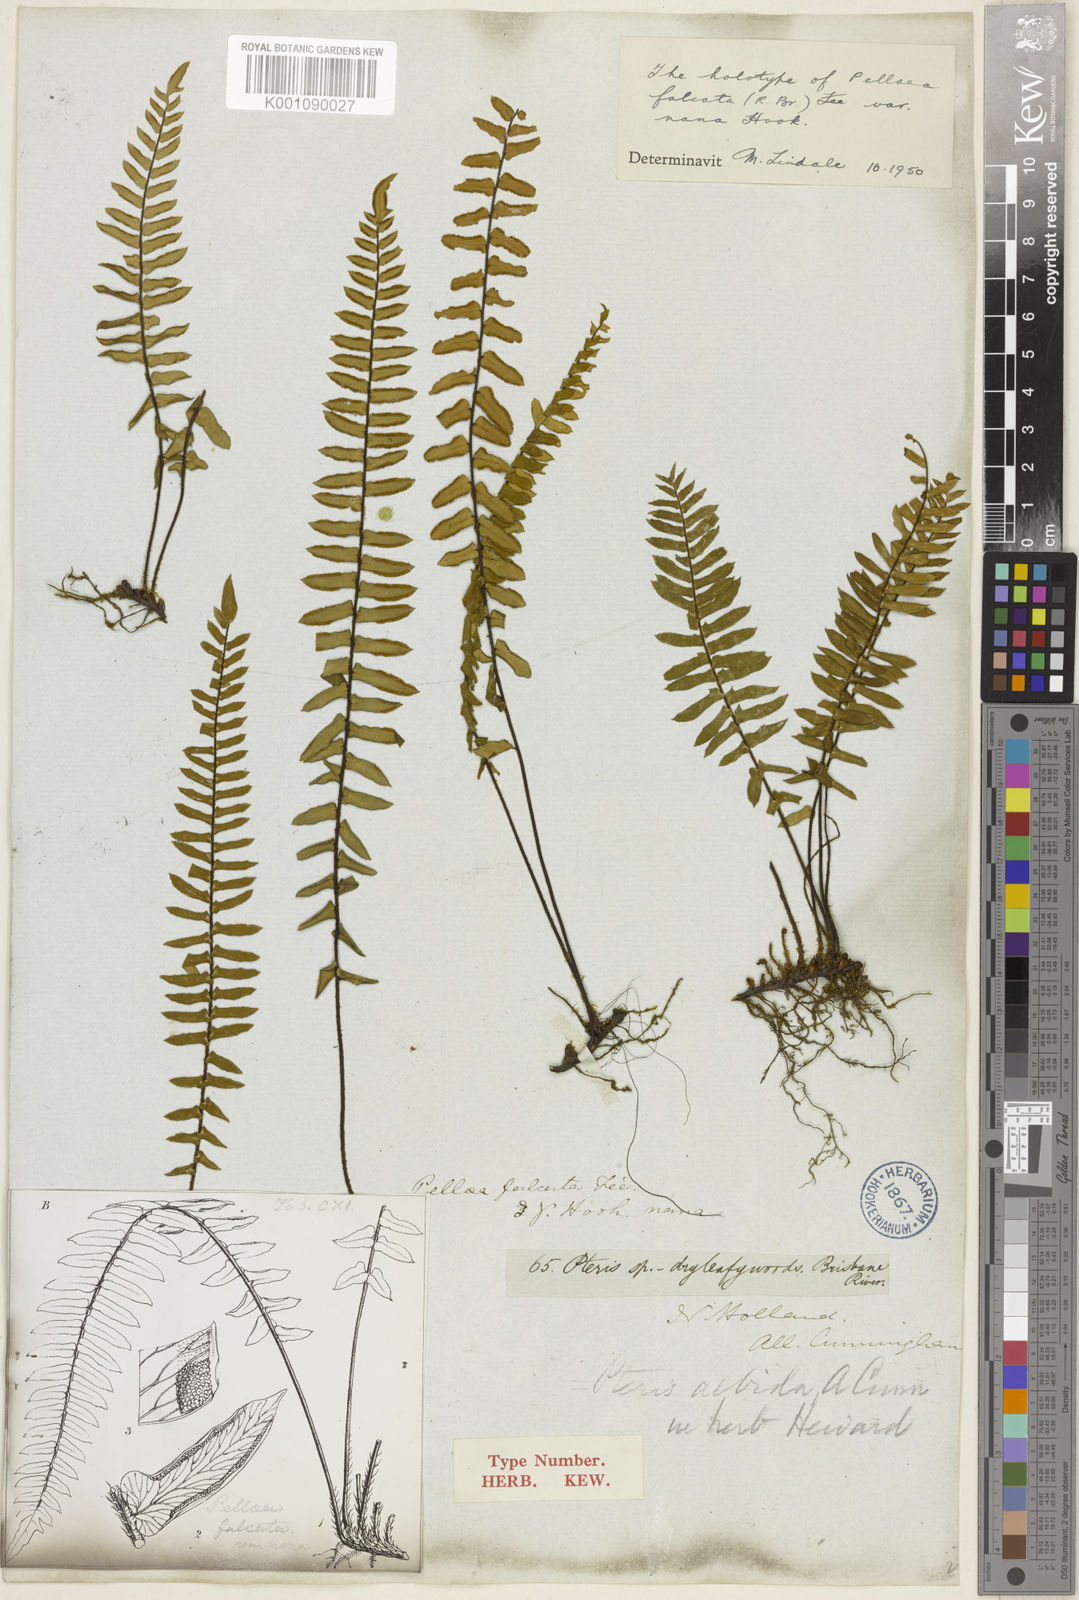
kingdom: Plantae
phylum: Tracheophyta
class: Polypodiopsida
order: Polypodiales
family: Pteridaceae
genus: Pellaea
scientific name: Pellaea
